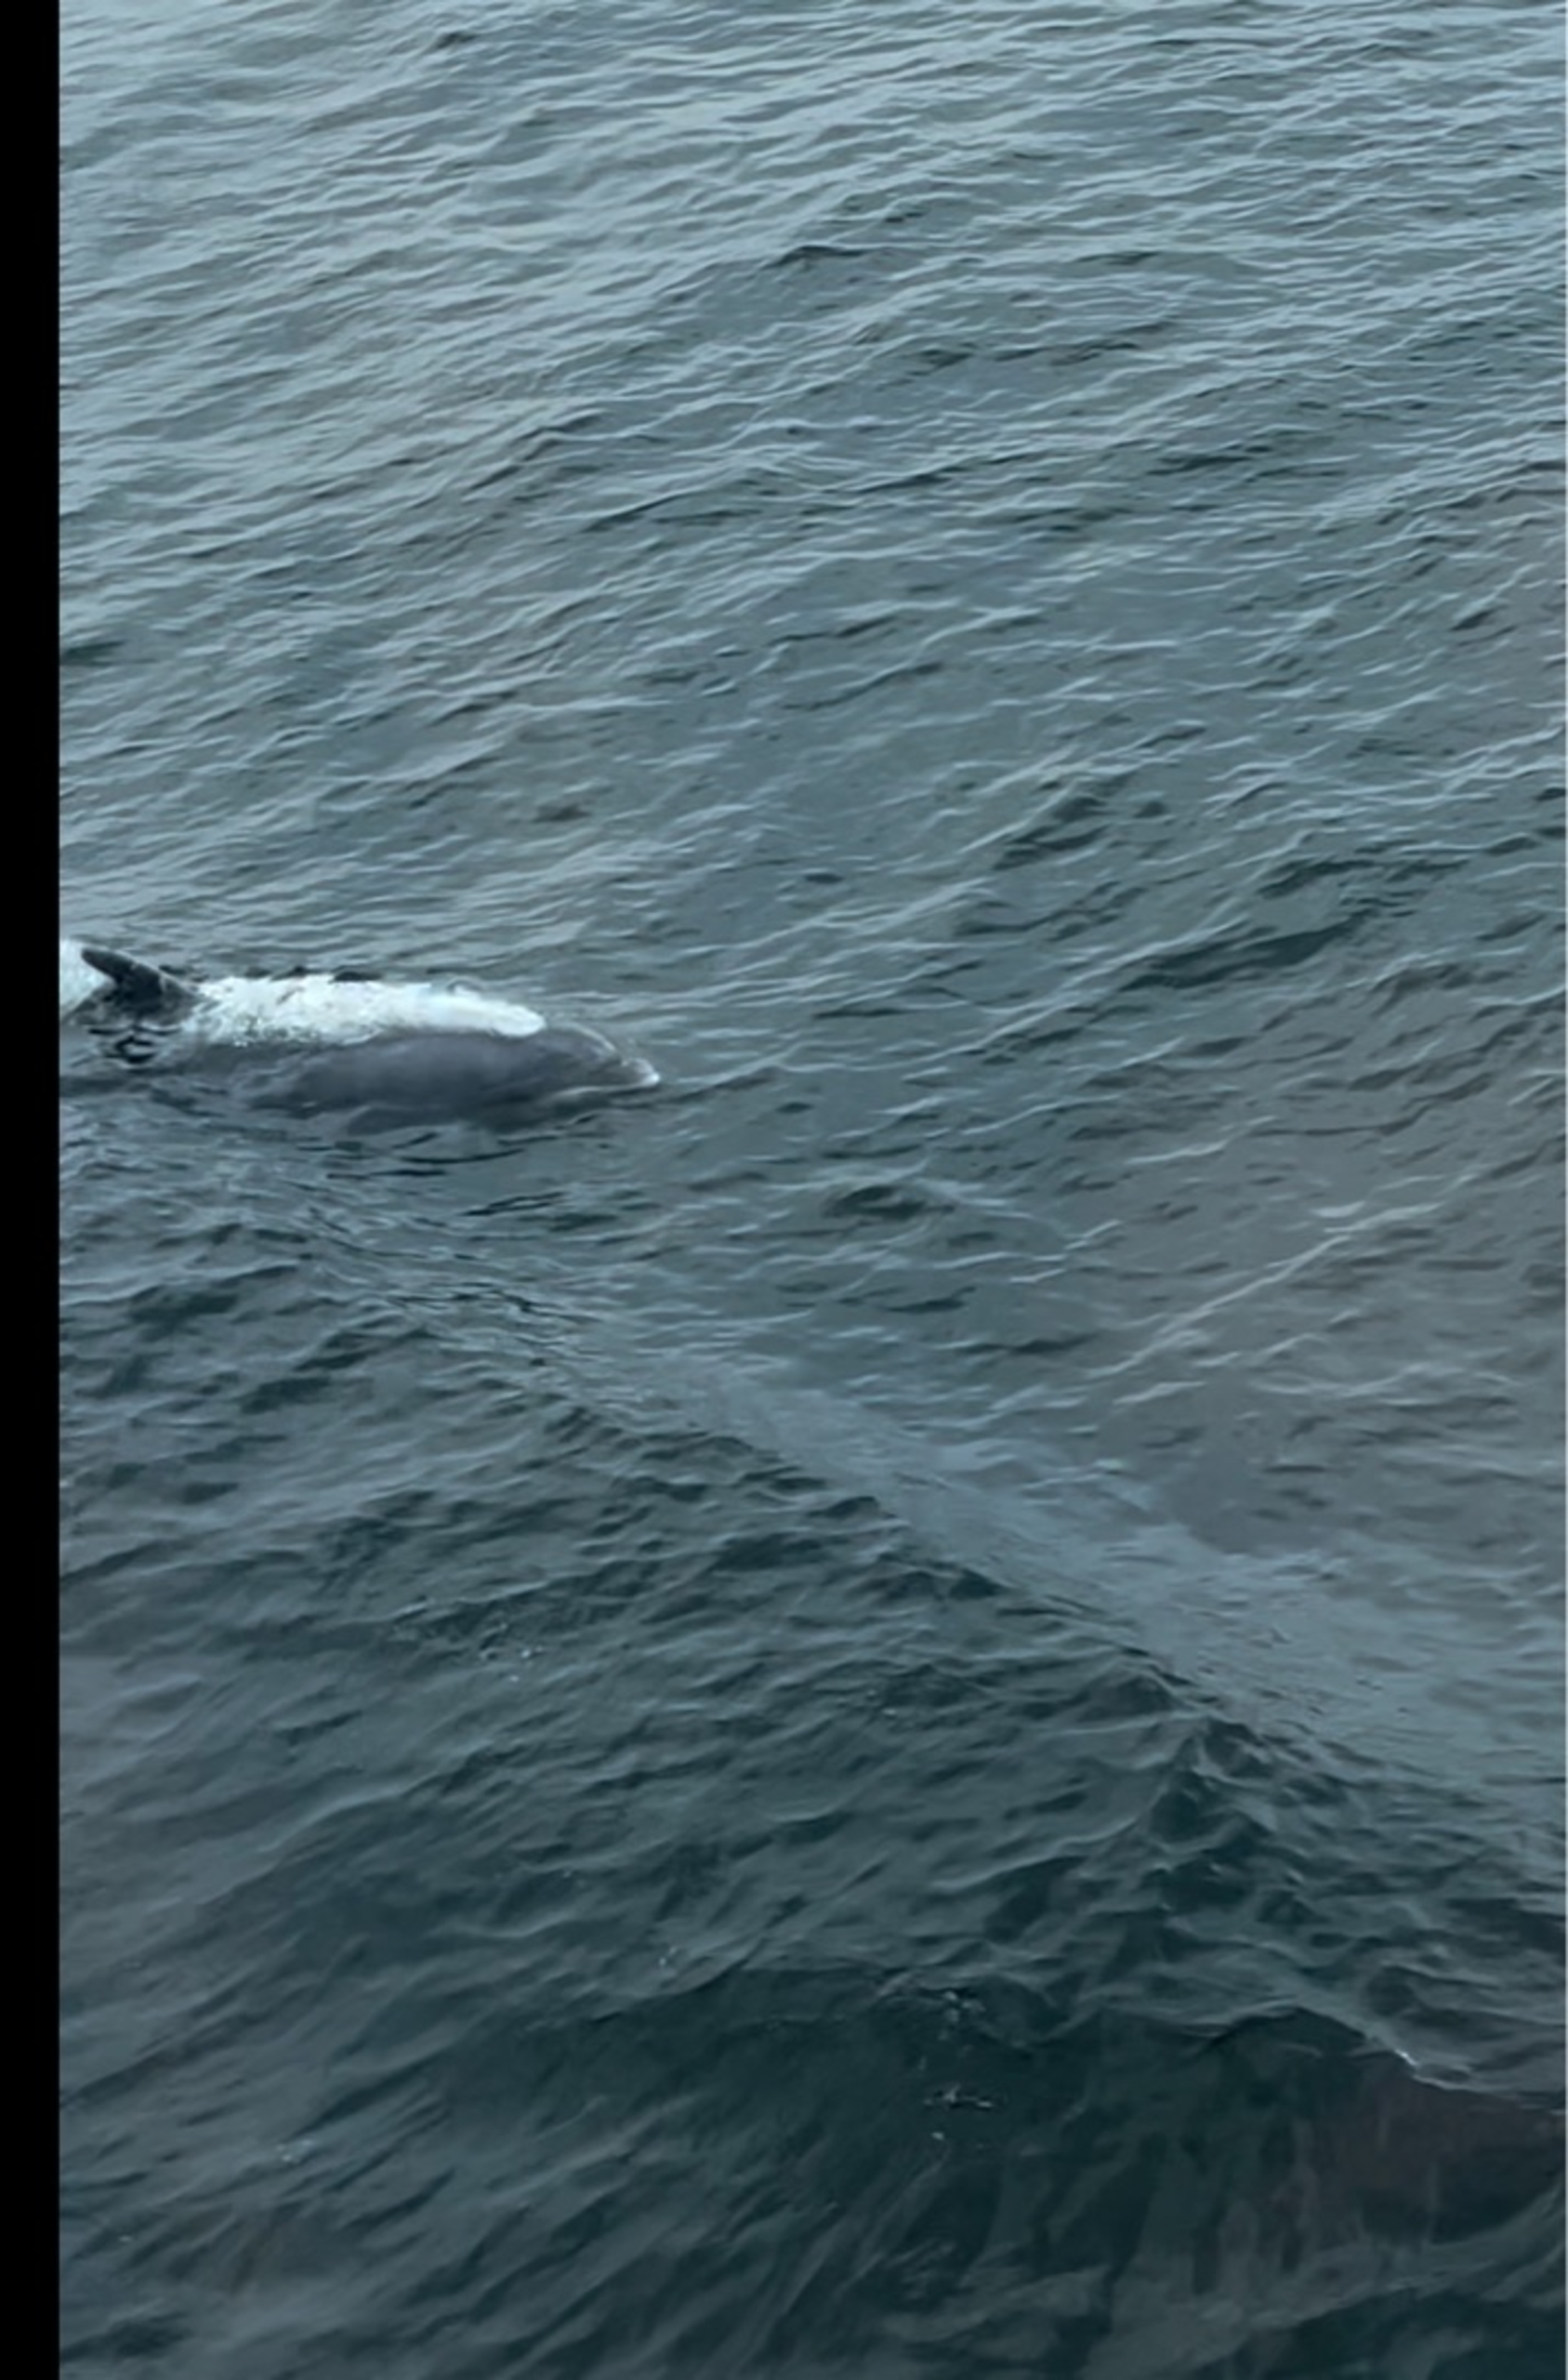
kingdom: Animalia
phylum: Chordata
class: Mammalia
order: Cetacea
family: Delphinidae
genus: Tursiops
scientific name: Tursiops truncatus
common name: Øresvin
